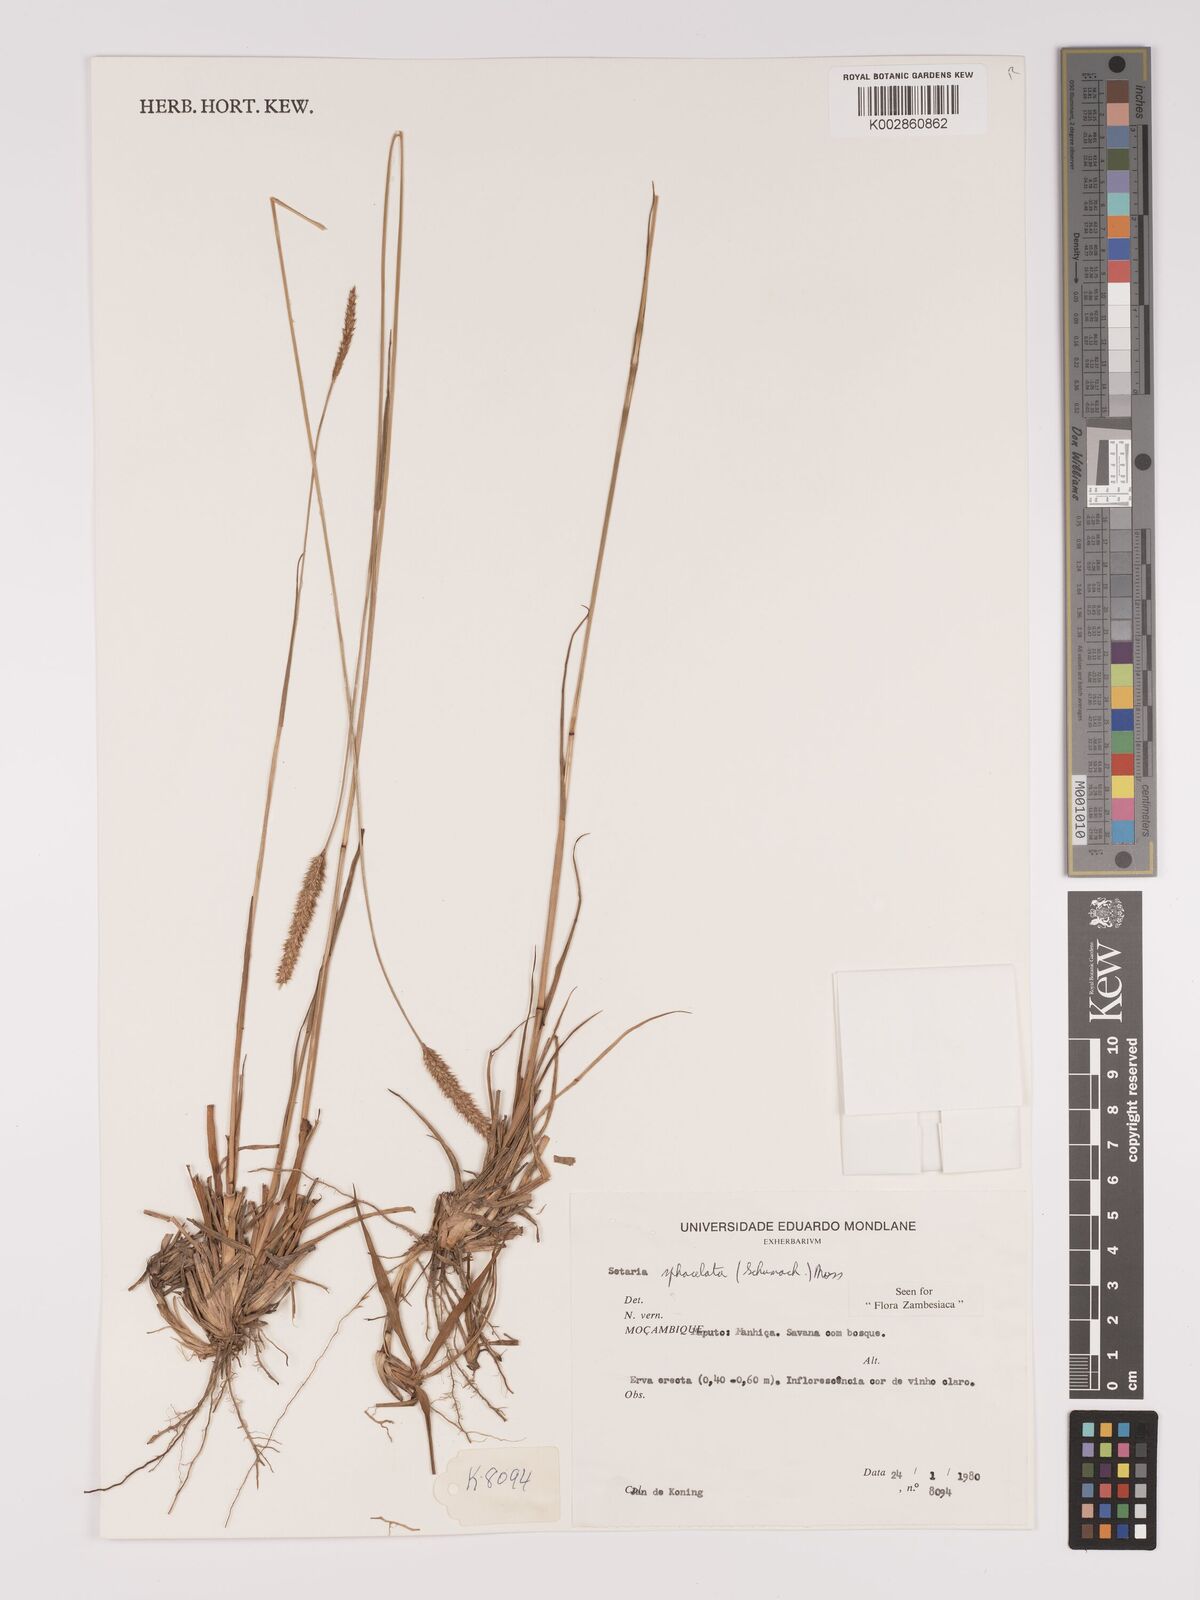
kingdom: Plantae
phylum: Tracheophyta
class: Liliopsida
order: Poales
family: Poaceae
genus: Setaria
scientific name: Setaria sphacelata
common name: African bristlegrass
